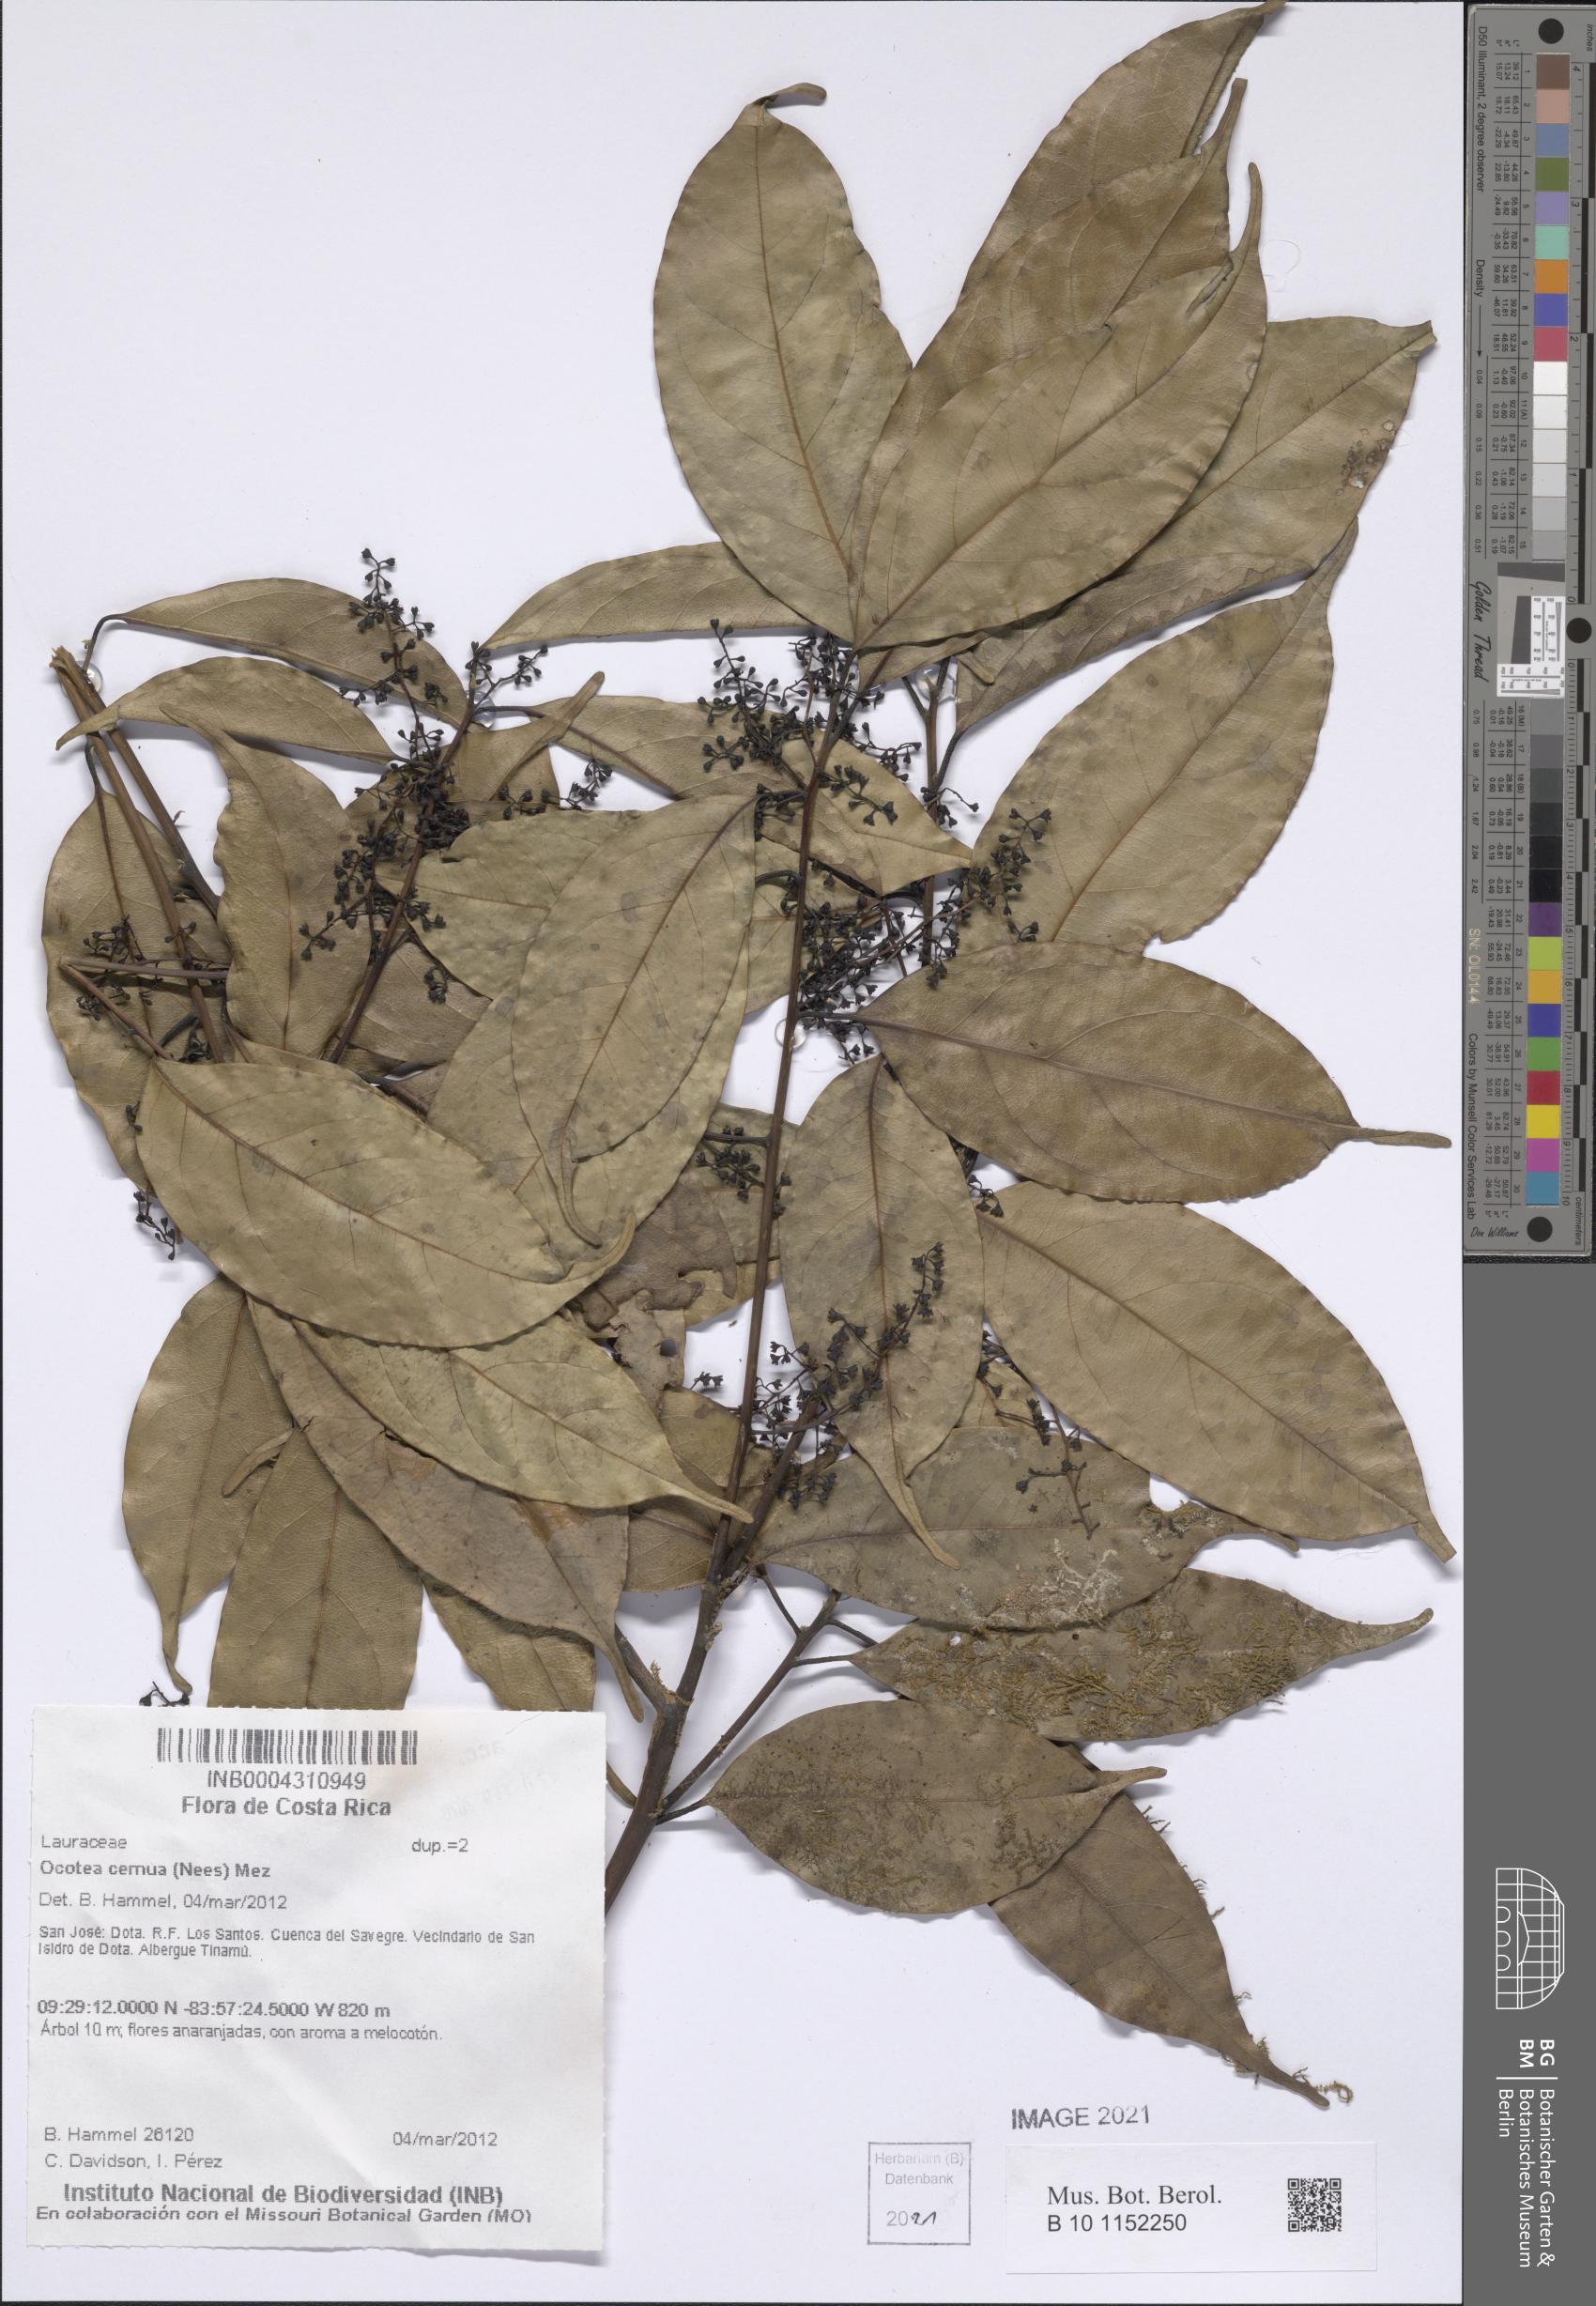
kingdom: Plantae
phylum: Tracheophyta
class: Magnoliopsida
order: Laurales
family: Lauraceae
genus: Ocotea
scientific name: Ocotea leptobotra
